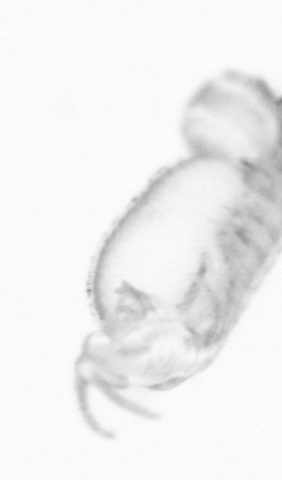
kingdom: Animalia
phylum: Annelida
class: Polychaeta
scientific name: Polychaeta
